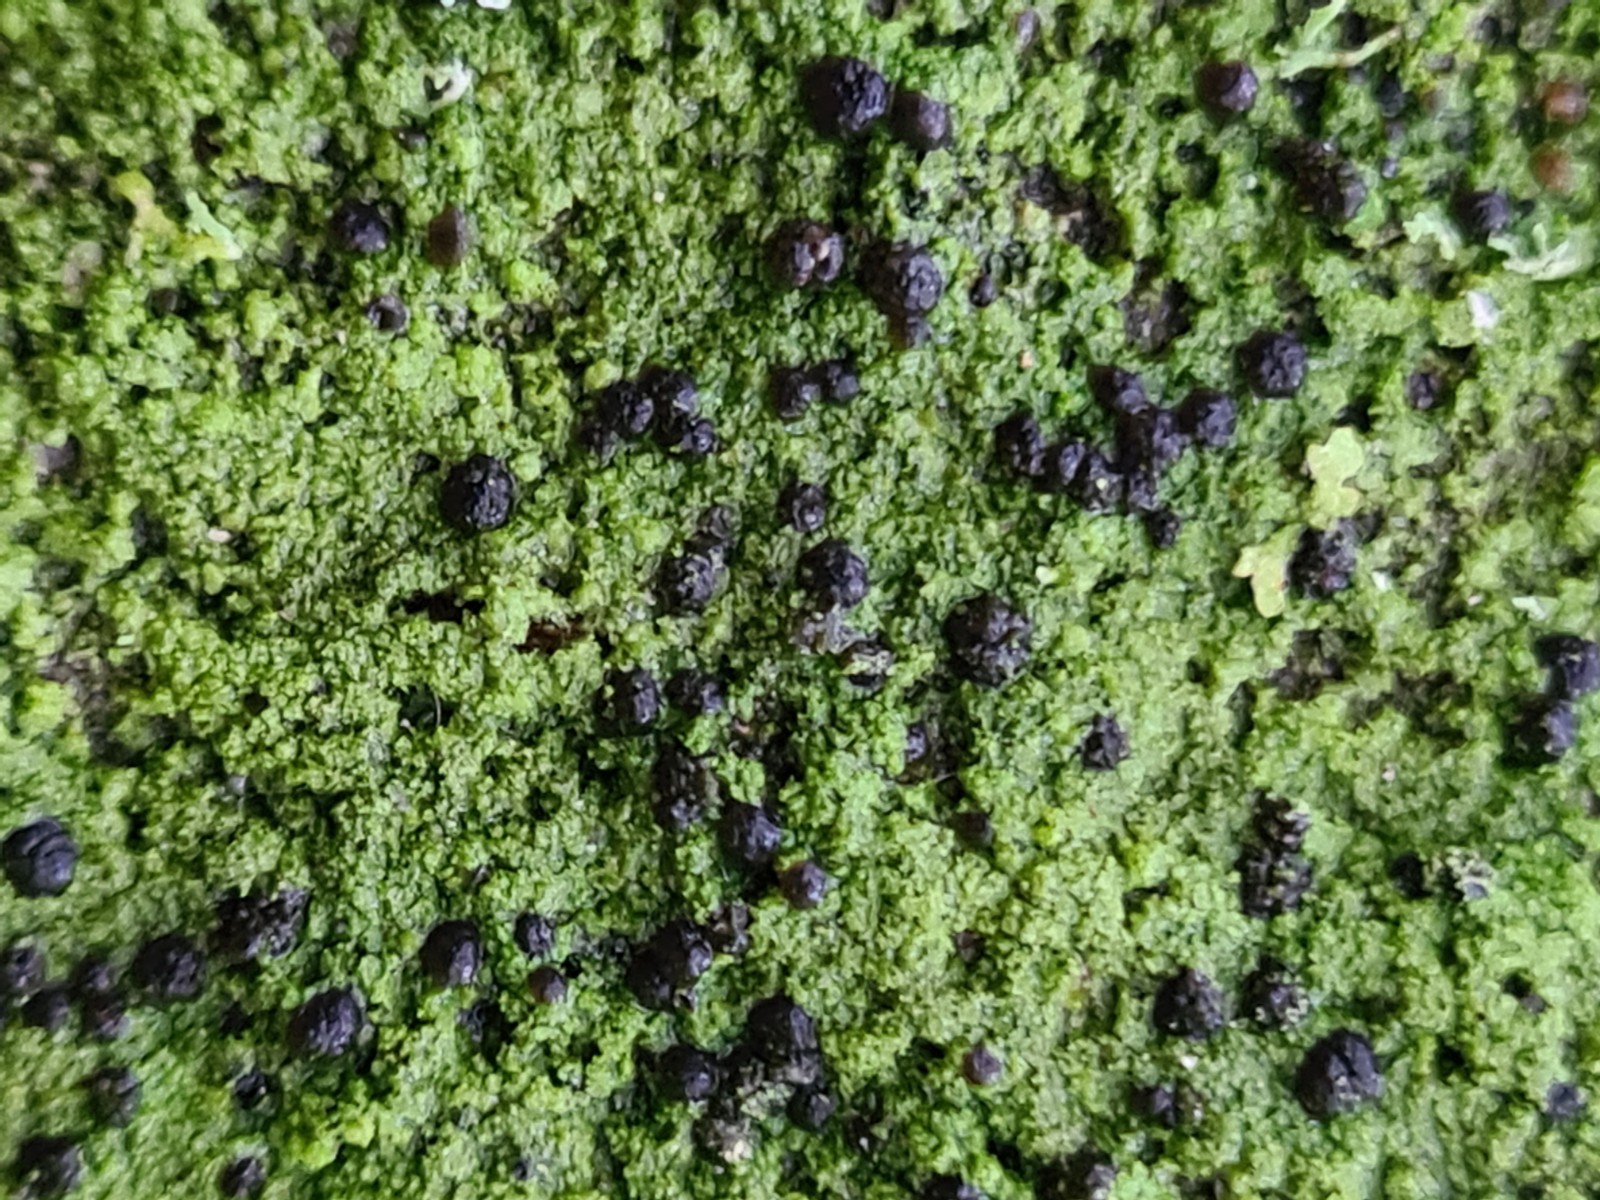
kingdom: Fungi
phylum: Ascomycota
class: Lecanoromycetes
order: Lecanorales
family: Scoliciosporaceae
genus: Scoliciosporum
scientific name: Scoliciosporum chlorococcum
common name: by-snosporelav
